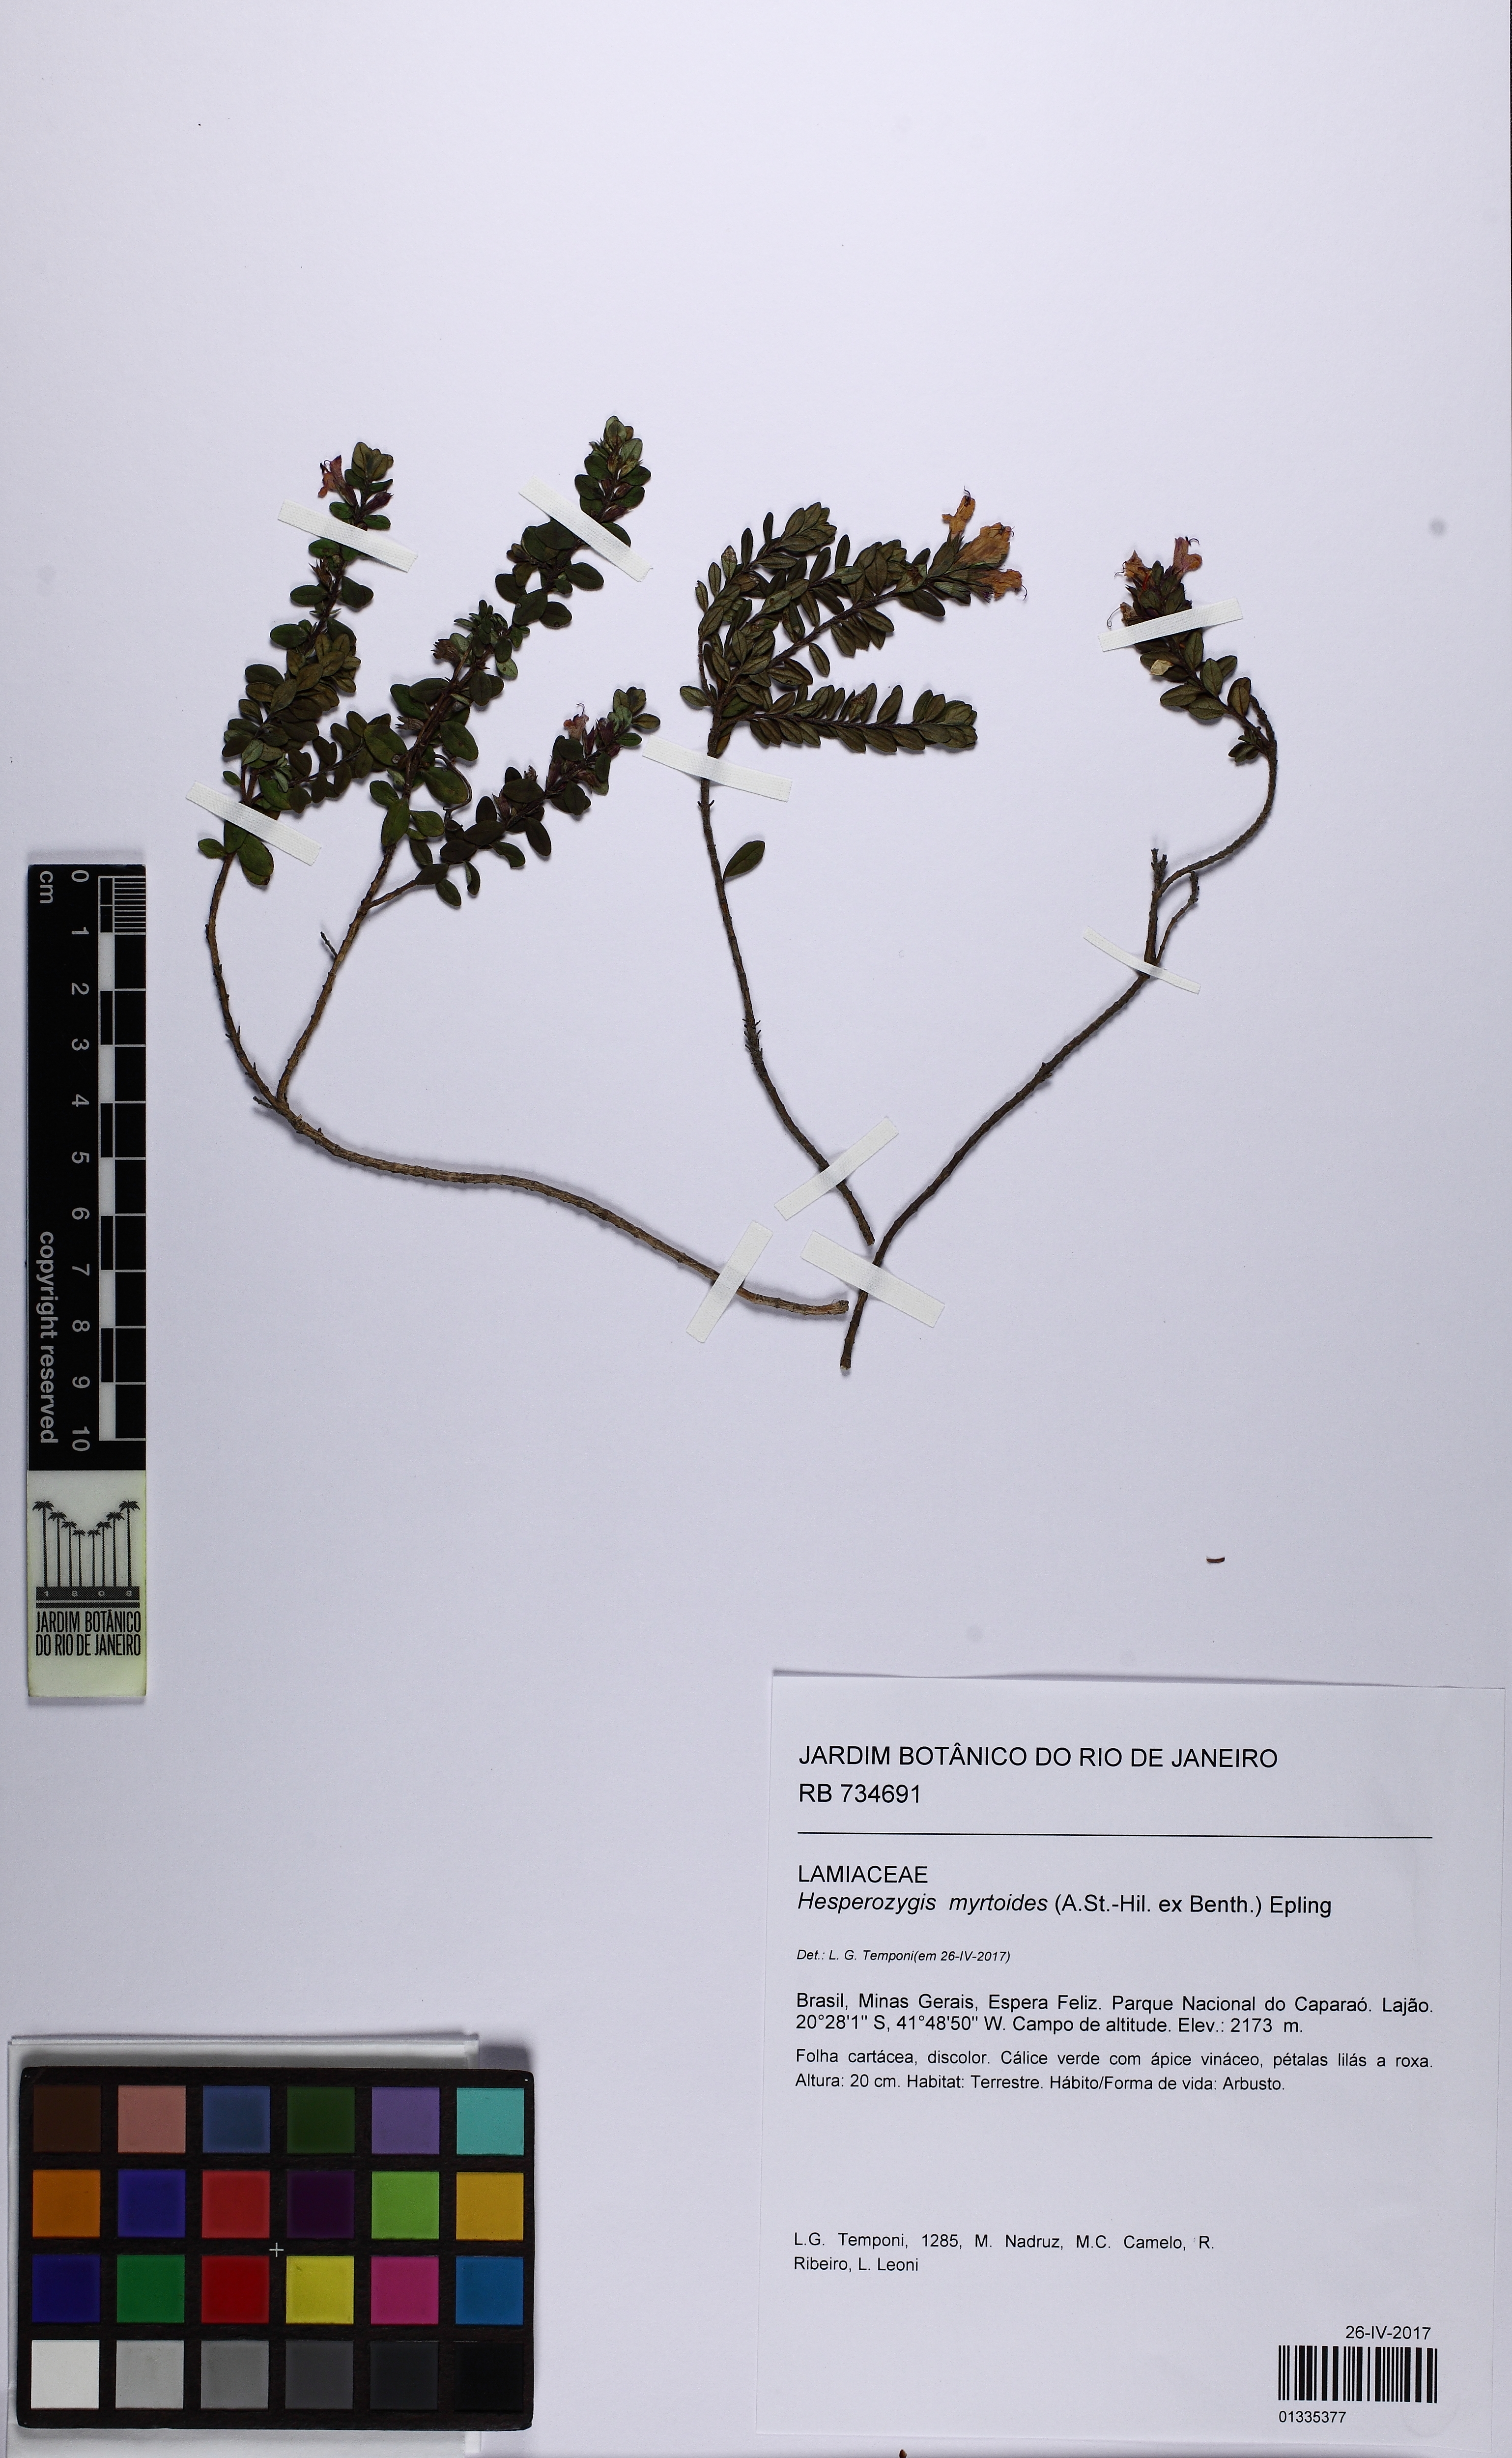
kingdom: Plantae
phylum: Tracheophyta
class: Magnoliopsida
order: Lamiales
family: Lamiaceae
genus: Hesperozygis
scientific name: Hesperozygis myrtoides
